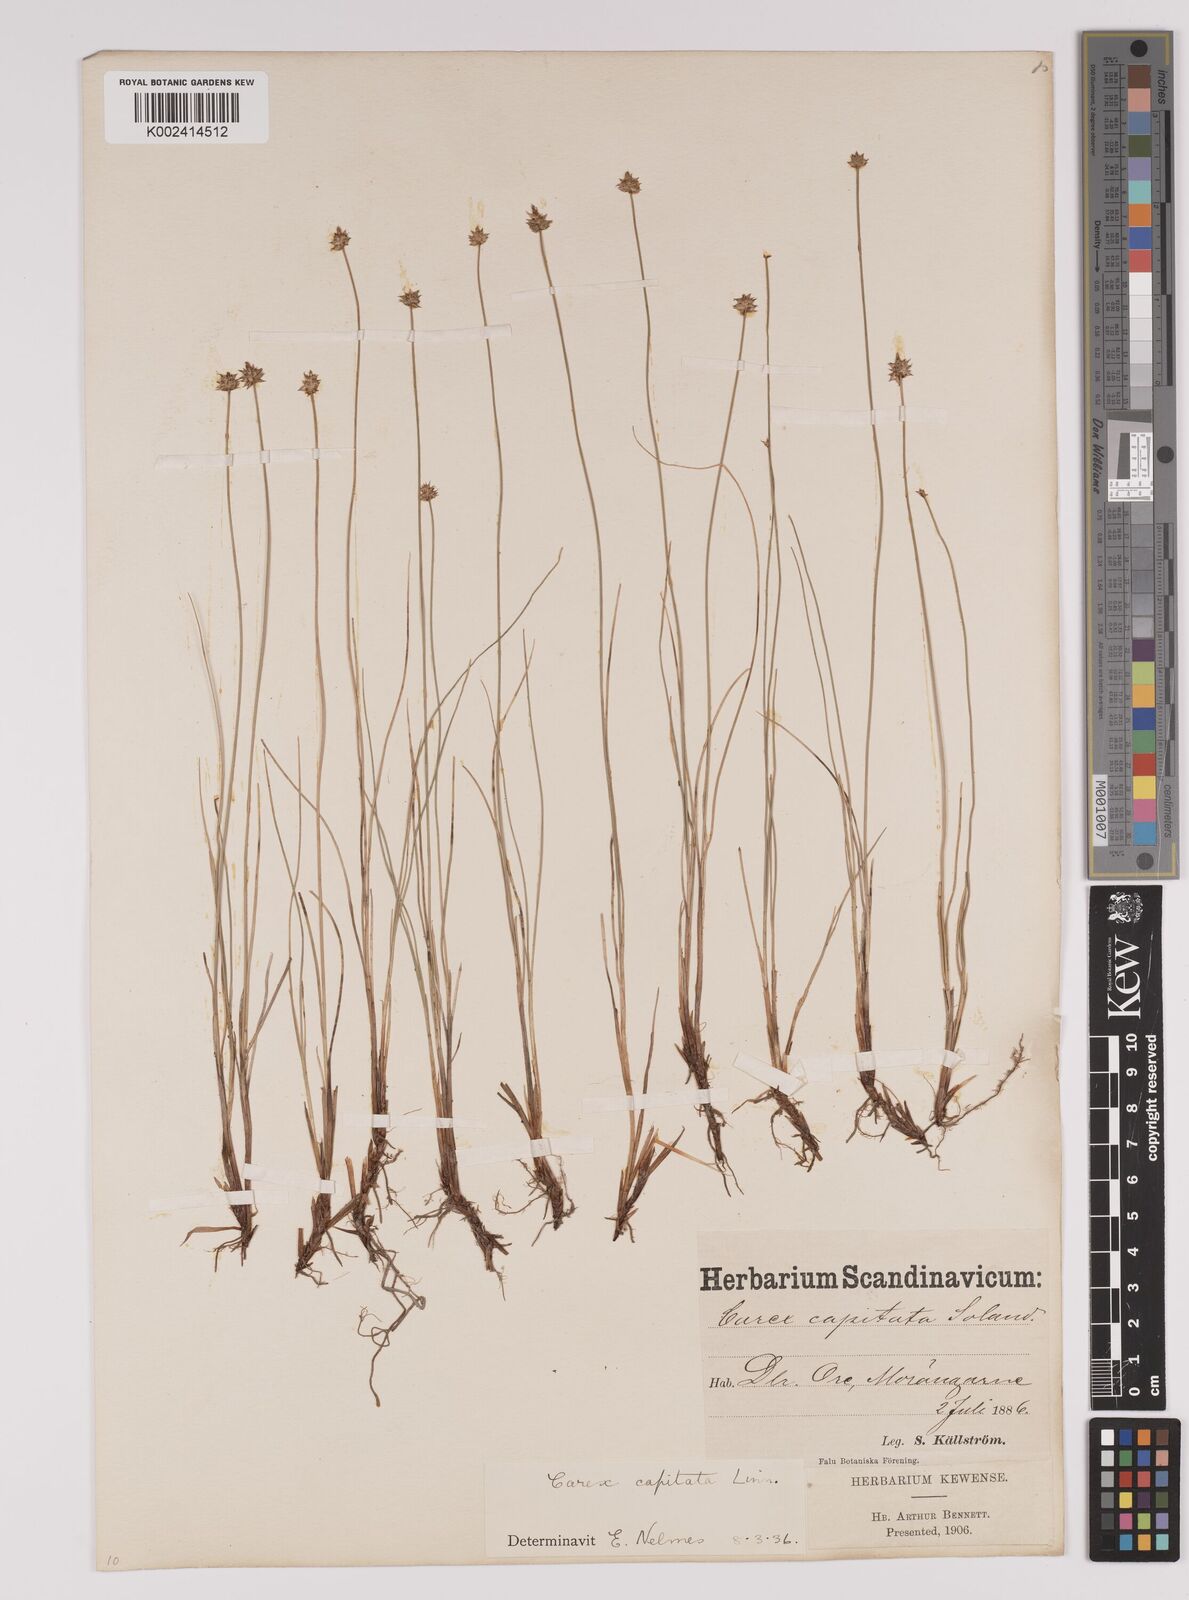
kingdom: Plantae
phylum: Tracheophyta
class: Liliopsida
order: Poales
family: Cyperaceae
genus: Carex
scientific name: Carex capitata
